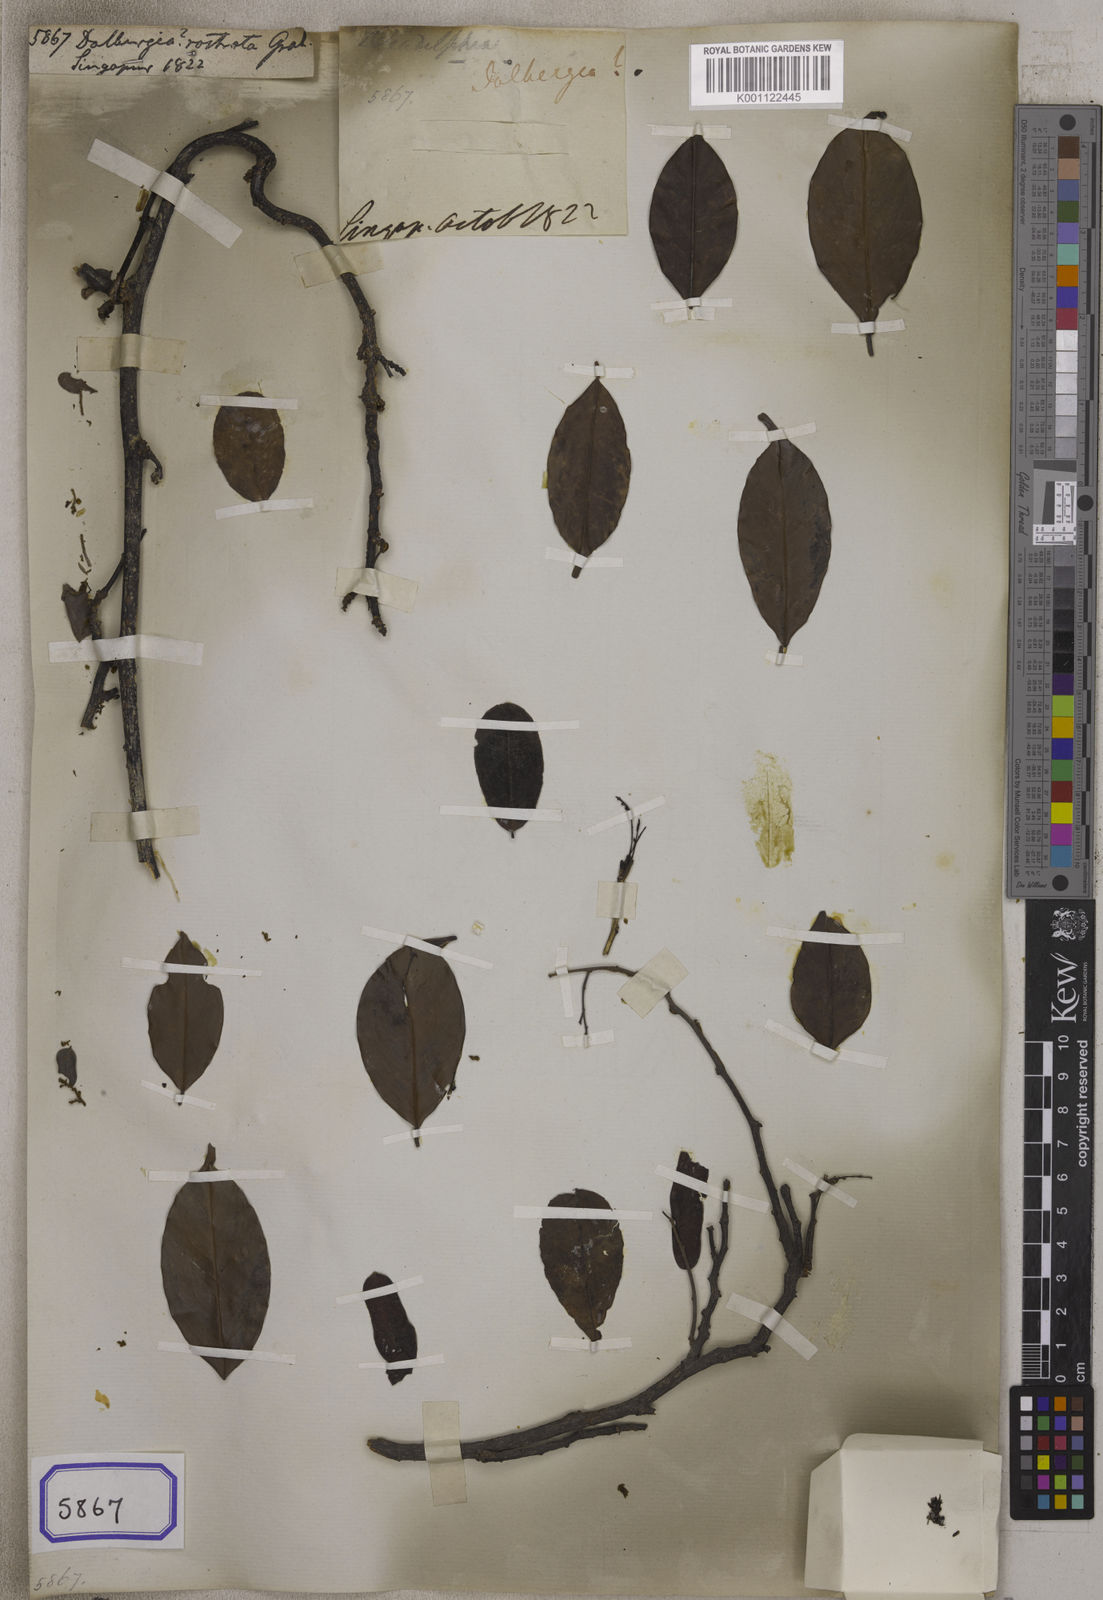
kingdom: Plantae
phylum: Tracheophyta
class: Magnoliopsida
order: Fabales
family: Fabaceae
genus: Dalbergia
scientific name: Dalbergia
